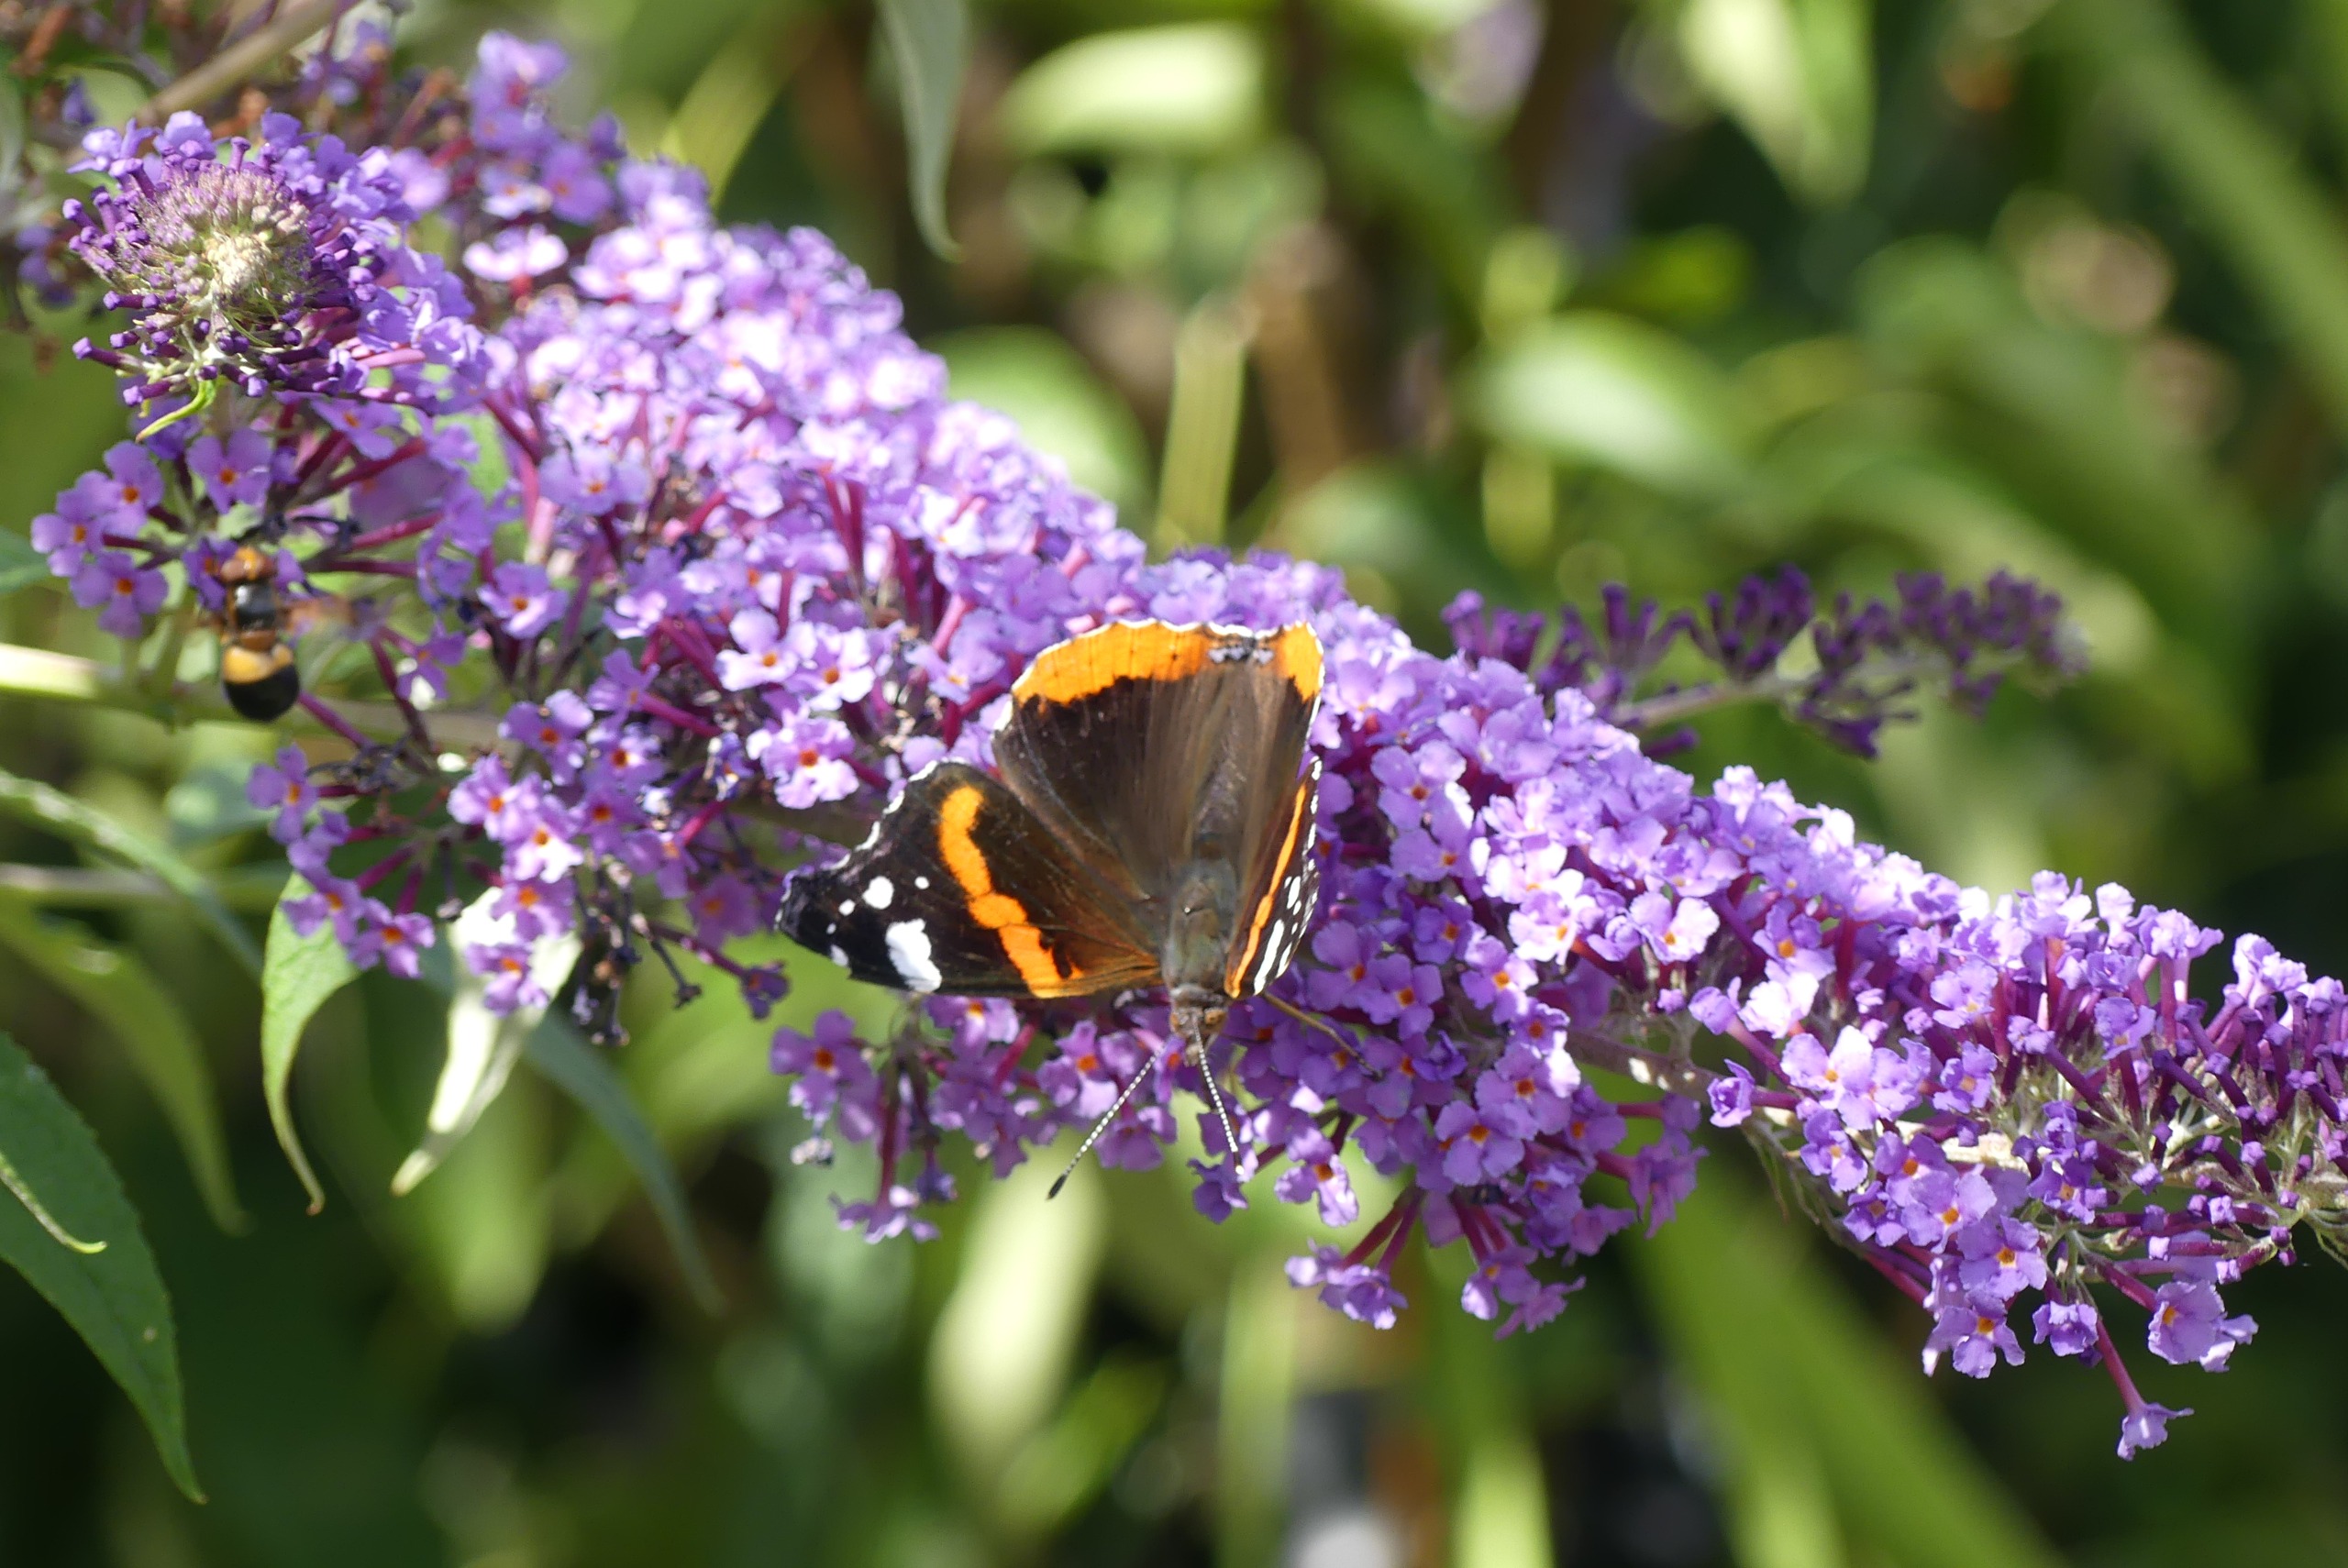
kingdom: Animalia
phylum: Arthropoda
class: Insecta
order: Lepidoptera
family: Nymphalidae
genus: Vanessa
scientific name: Vanessa atalanta
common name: Admiral
